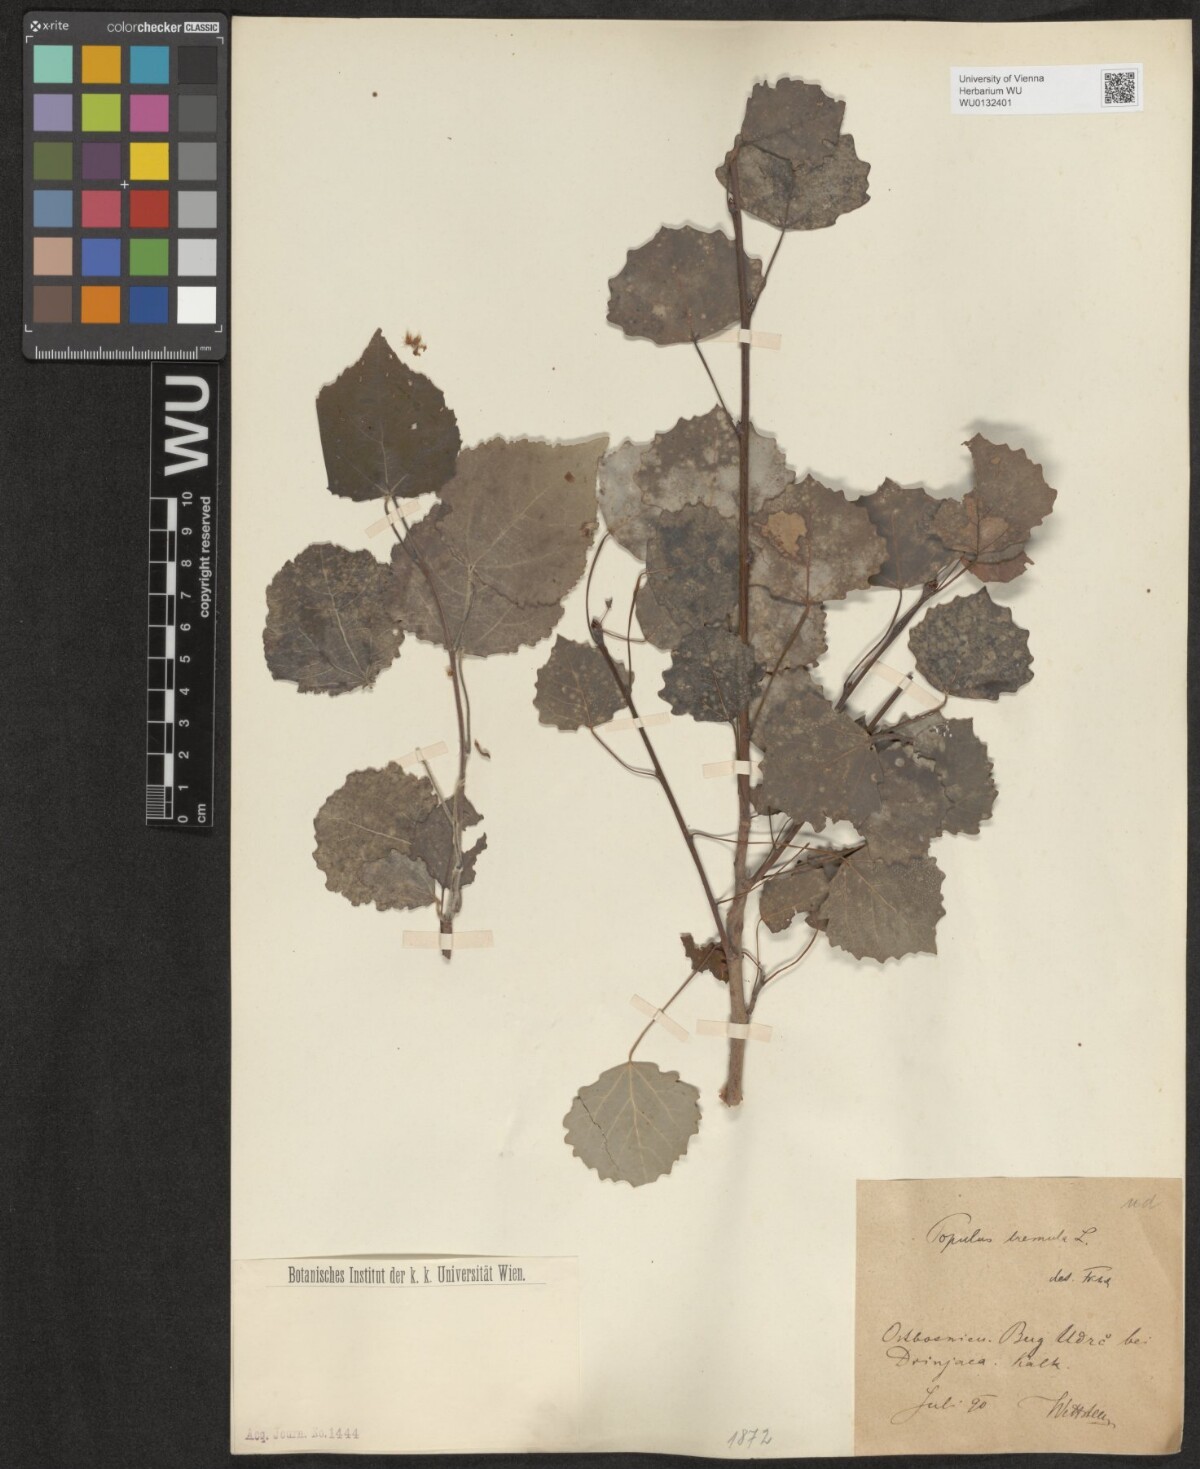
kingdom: Plantae
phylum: Tracheophyta
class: Magnoliopsida
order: Malpighiales
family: Salicaceae
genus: Populus
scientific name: Populus tremula
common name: European aspen
